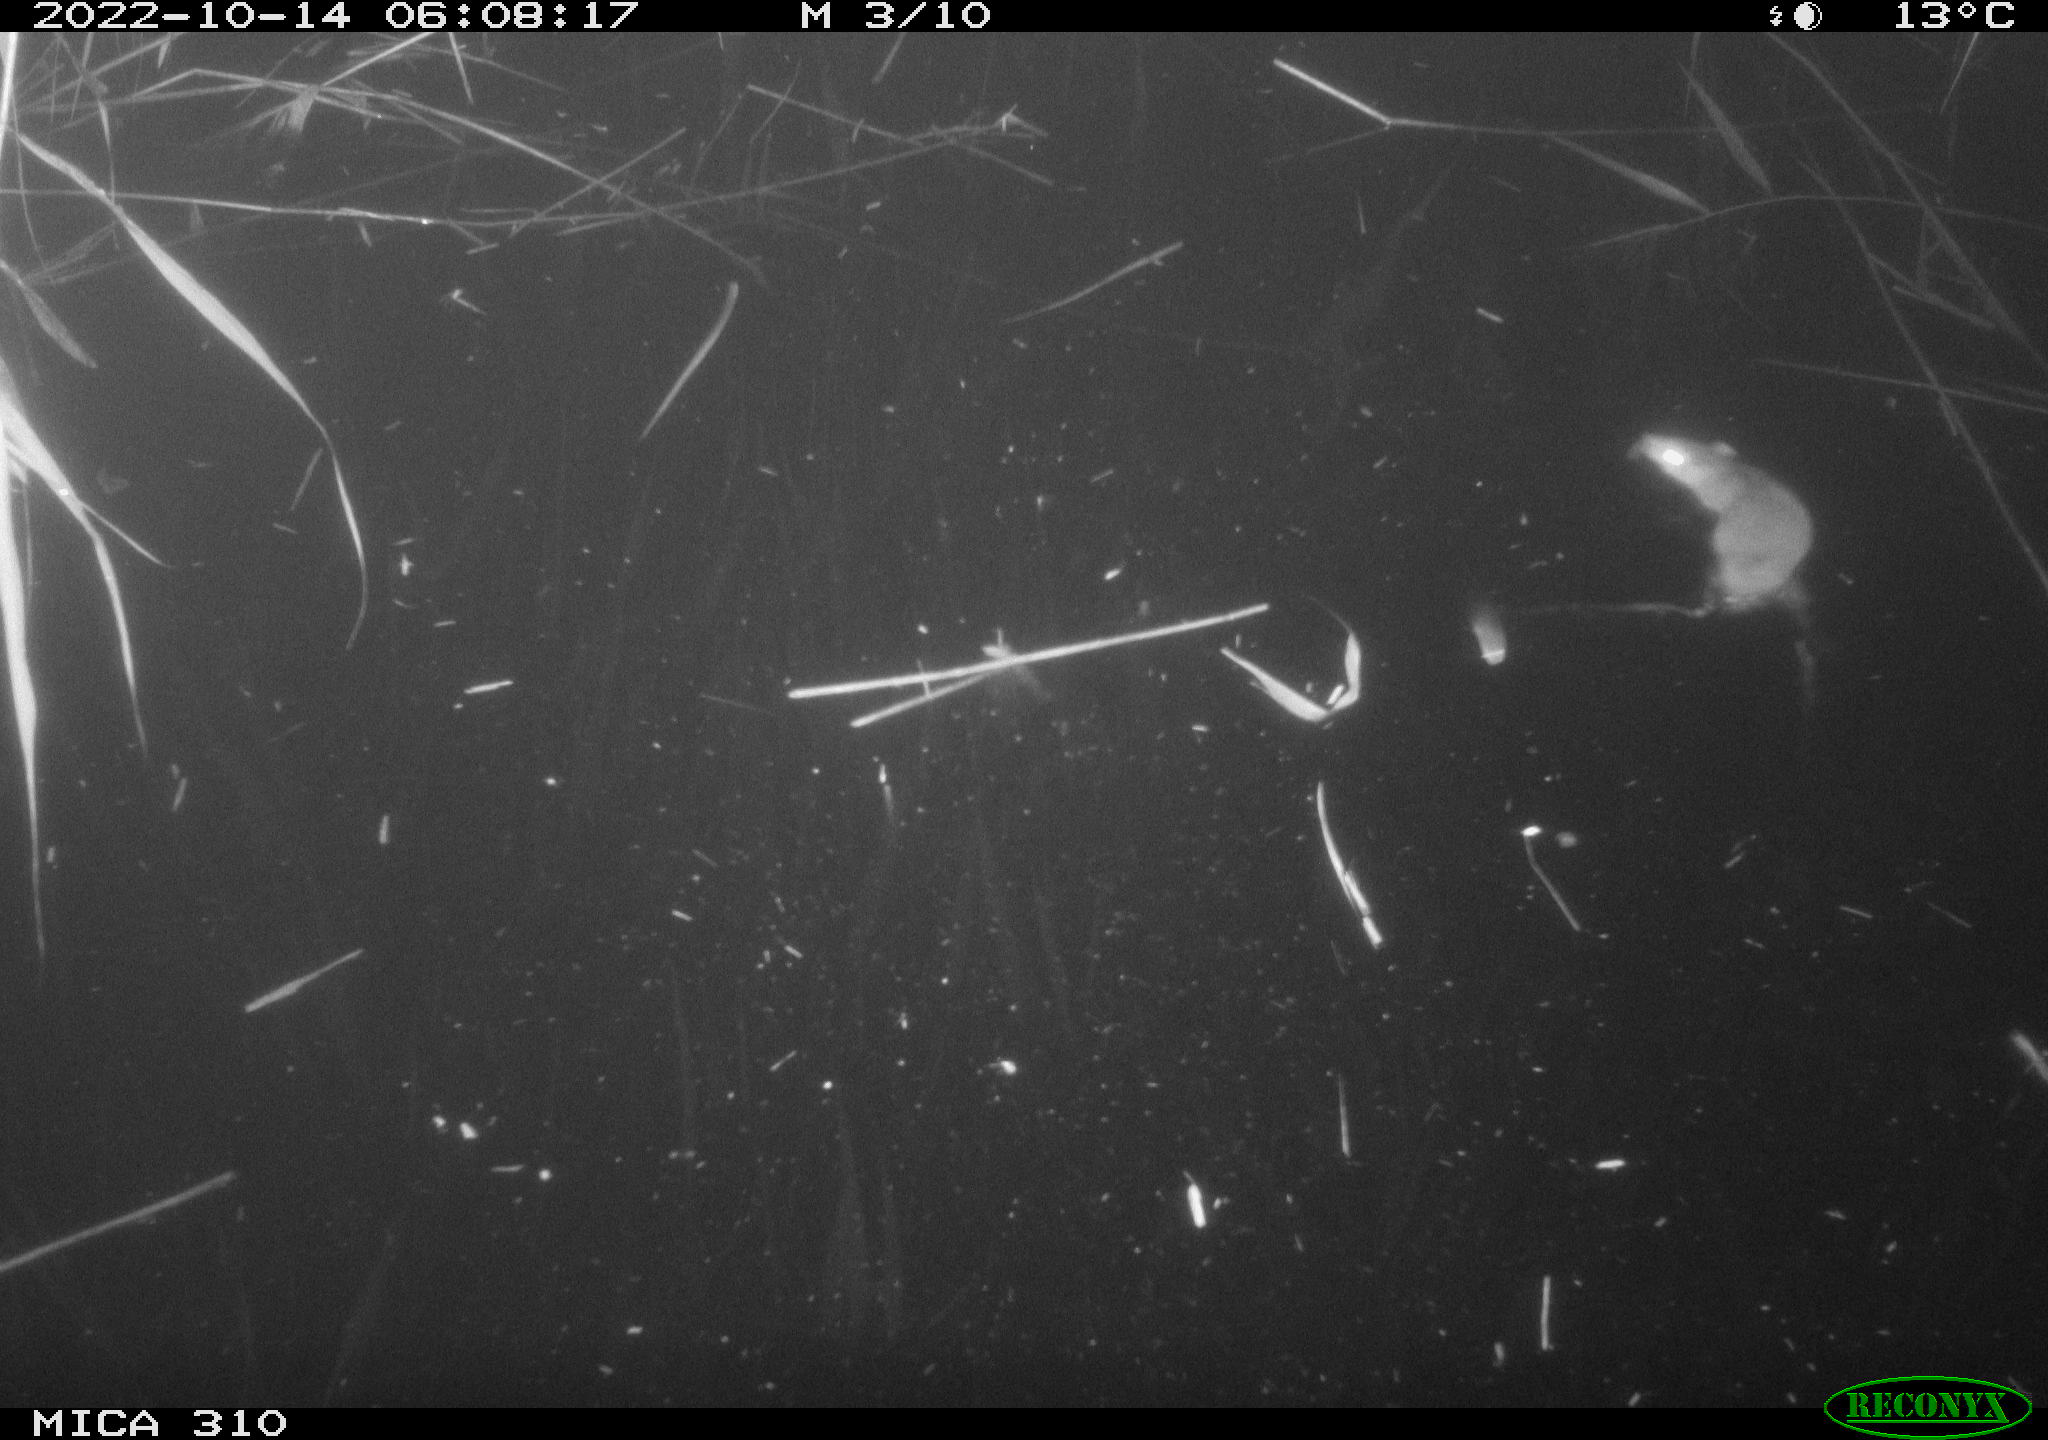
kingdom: Animalia
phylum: Chordata
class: Mammalia
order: Rodentia
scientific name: Rodentia
